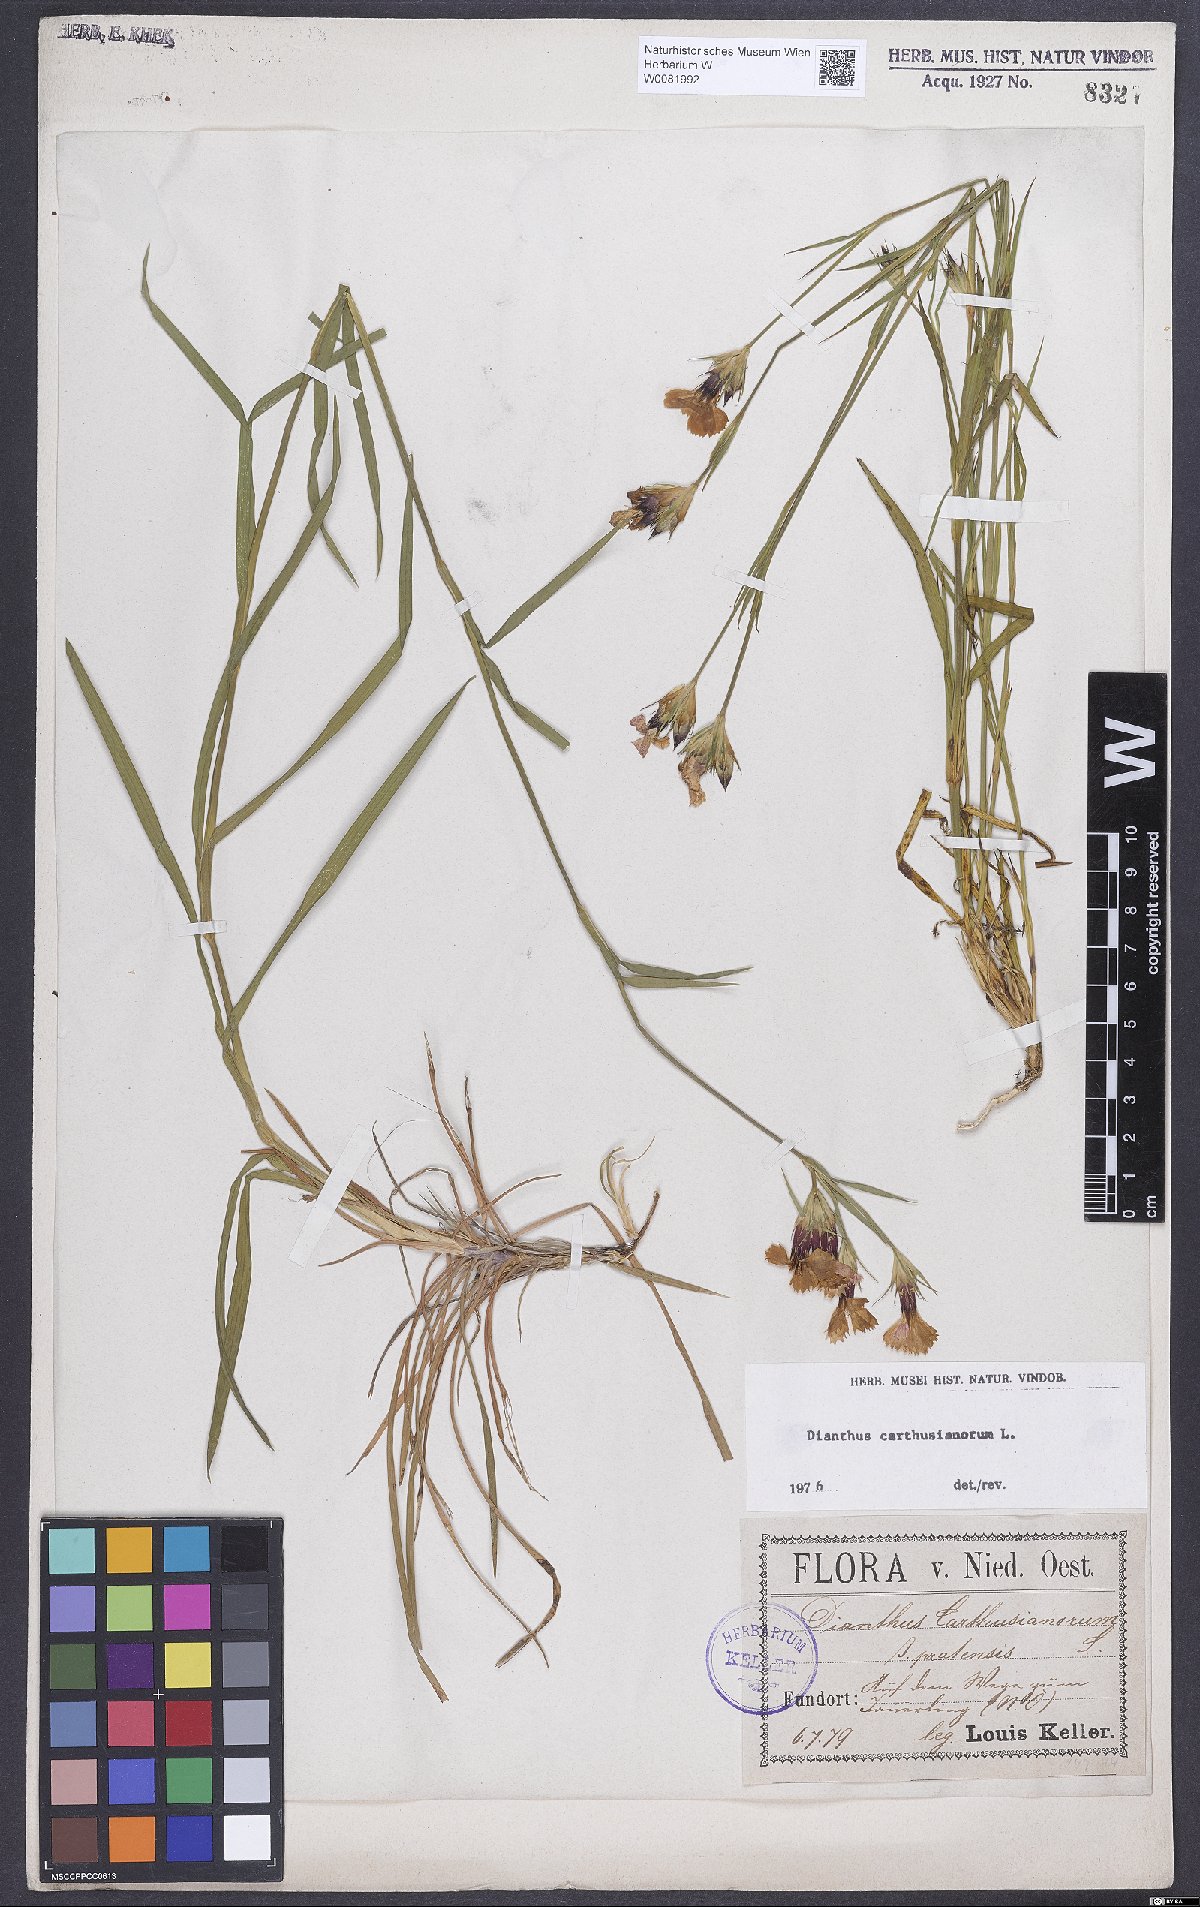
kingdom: Plantae
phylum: Tracheophyta
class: Magnoliopsida
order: Caryophyllales
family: Caryophyllaceae
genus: Dianthus
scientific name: Dianthus carthusianorum
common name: Carthusian pink
